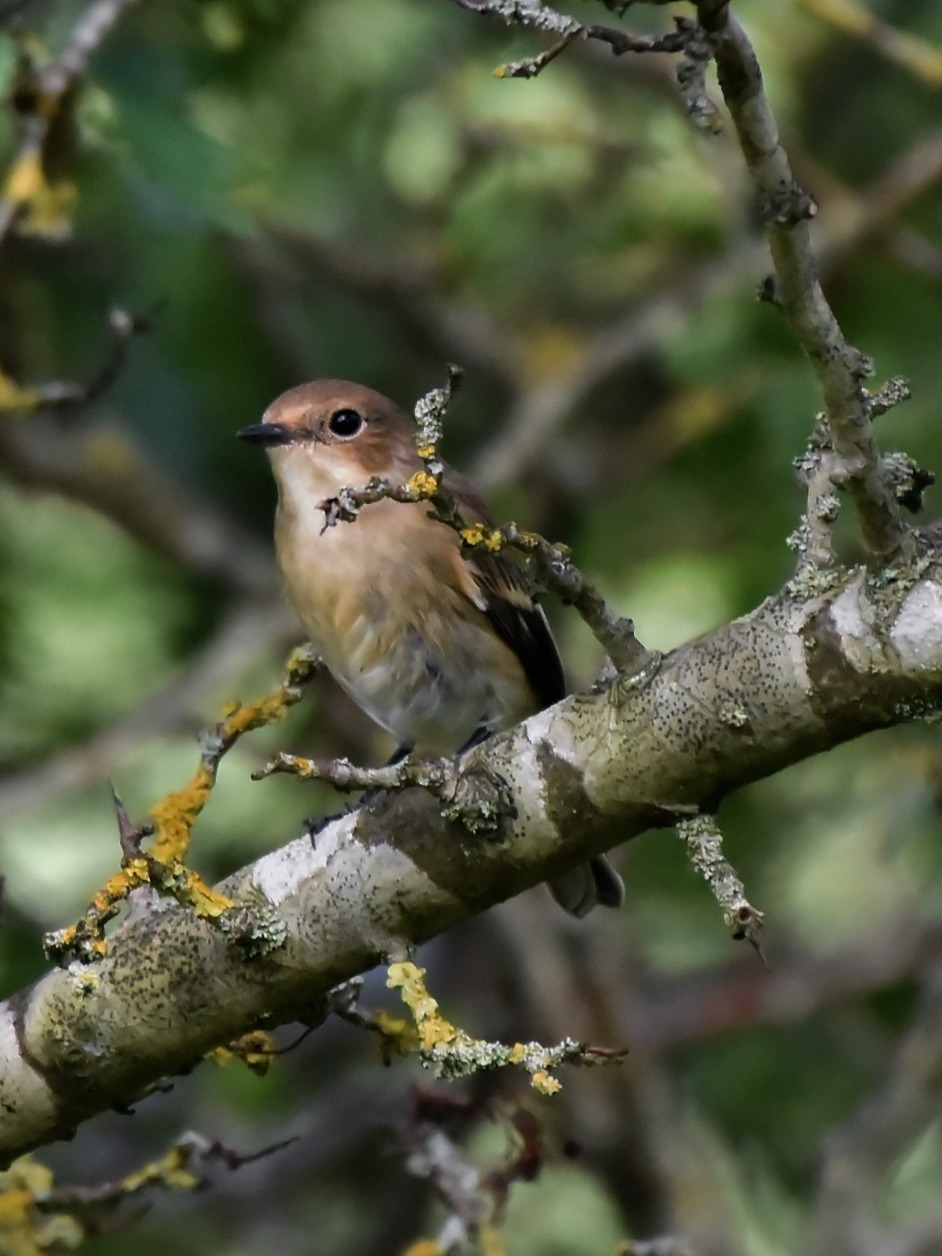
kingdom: Animalia
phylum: Chordata
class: Aves
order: Passeriformes
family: Muscicapidae
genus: Ficedula
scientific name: Ficedula hypoleuca
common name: Broget fluesnapper
